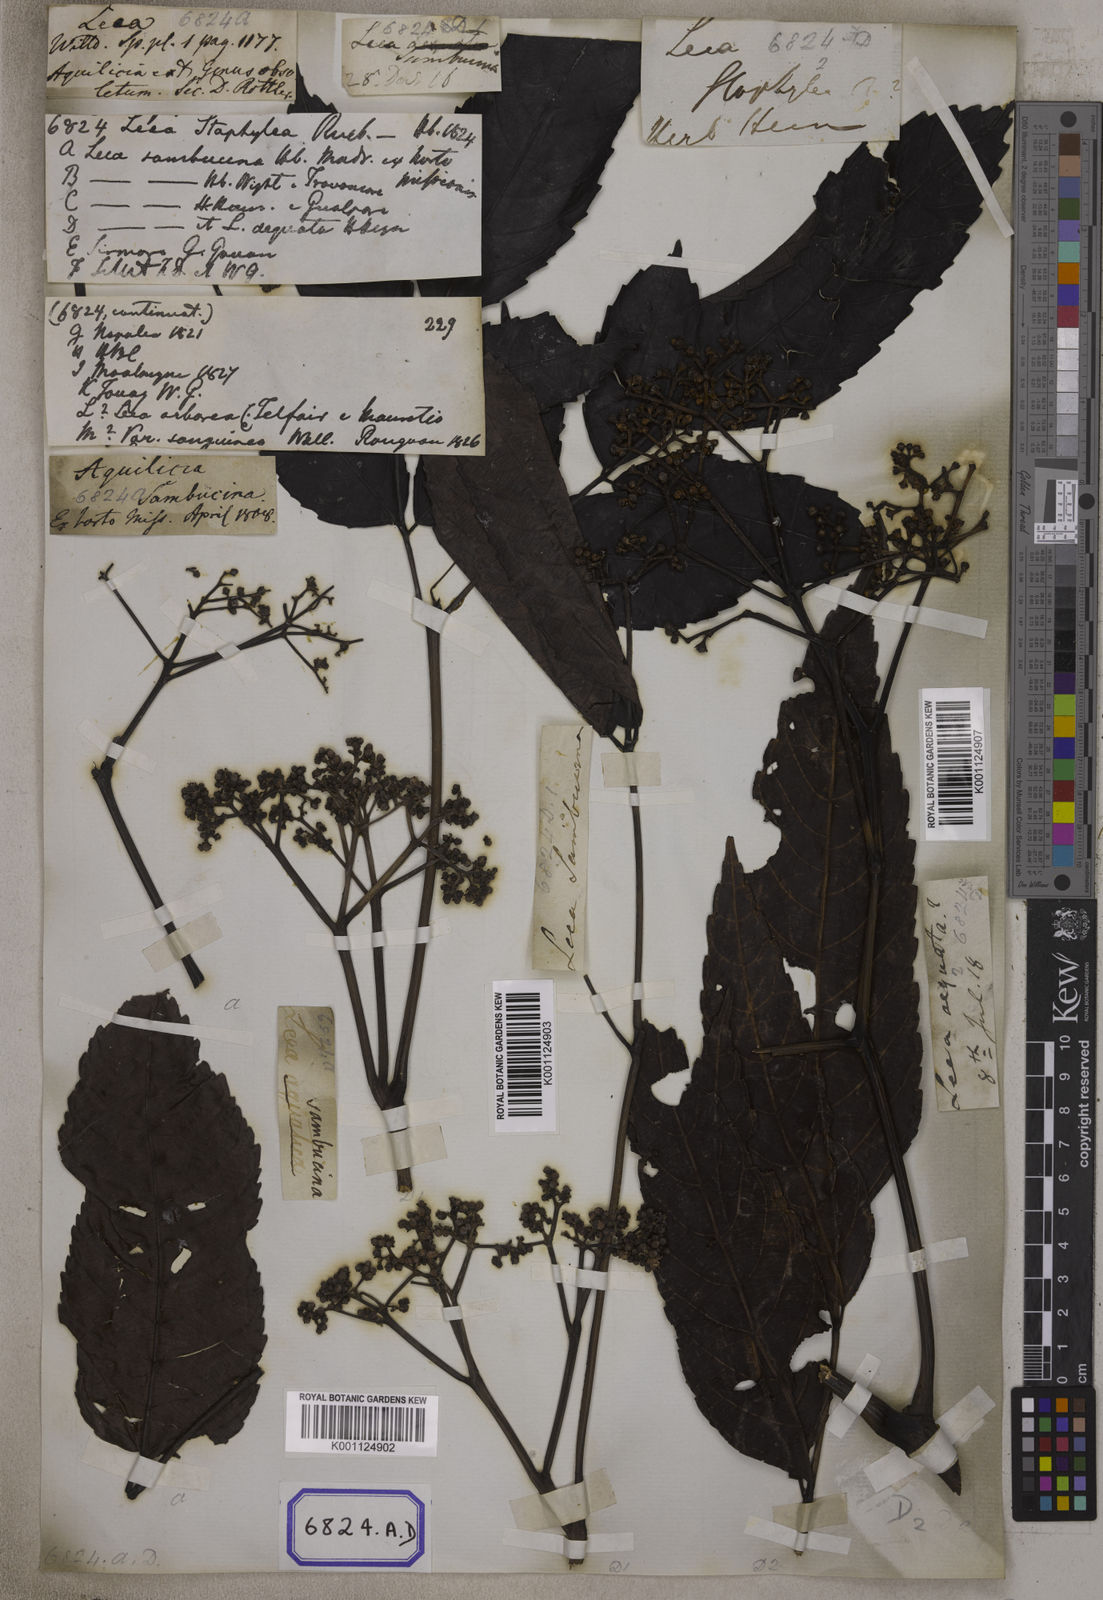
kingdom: Plantae
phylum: Tracheophyta
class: Magnoliopsida
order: Vitales
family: Vitaceae
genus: Leea
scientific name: Leea
